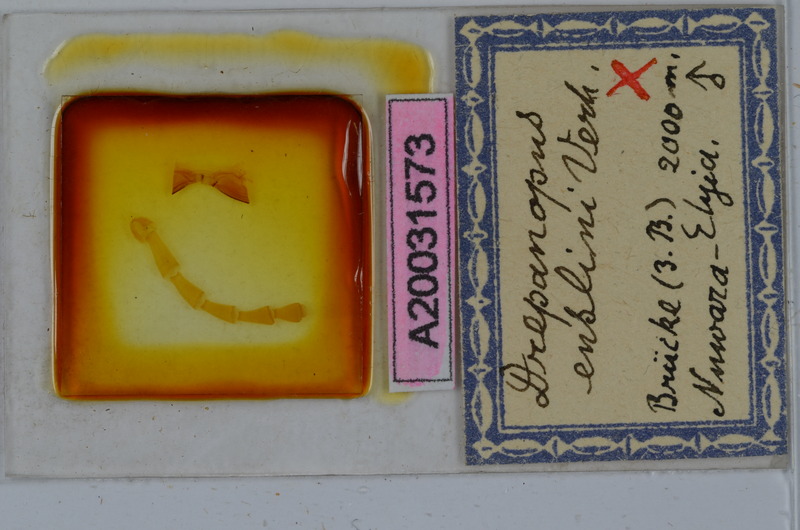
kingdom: Animalia
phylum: Arthropoda
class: Diplopoda
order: Spirostreptida
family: Harpagophoridae
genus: Ktenostreptus
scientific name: Ktenostreptus centrurus
